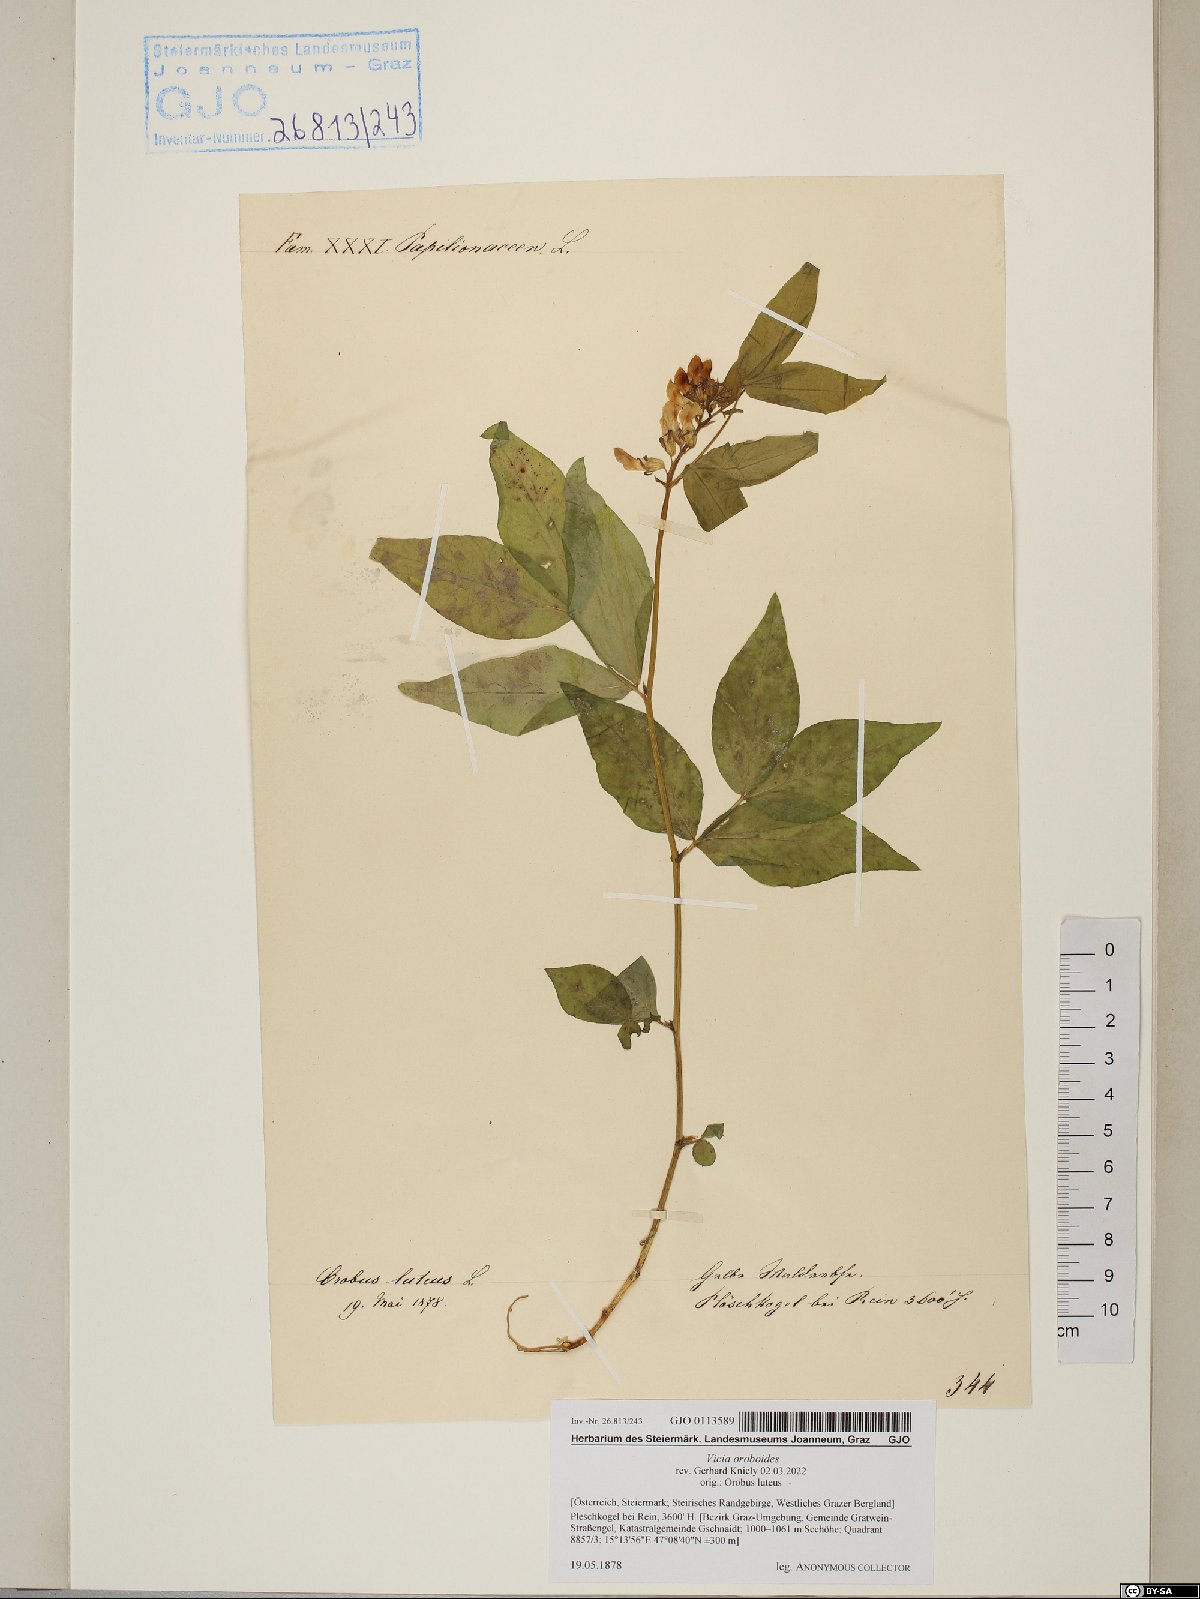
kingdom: Plantae
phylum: Tracheophyta
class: Magnoliopsida
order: Fabales
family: Fabaceae
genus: Vicia
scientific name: Vicia oroboides
